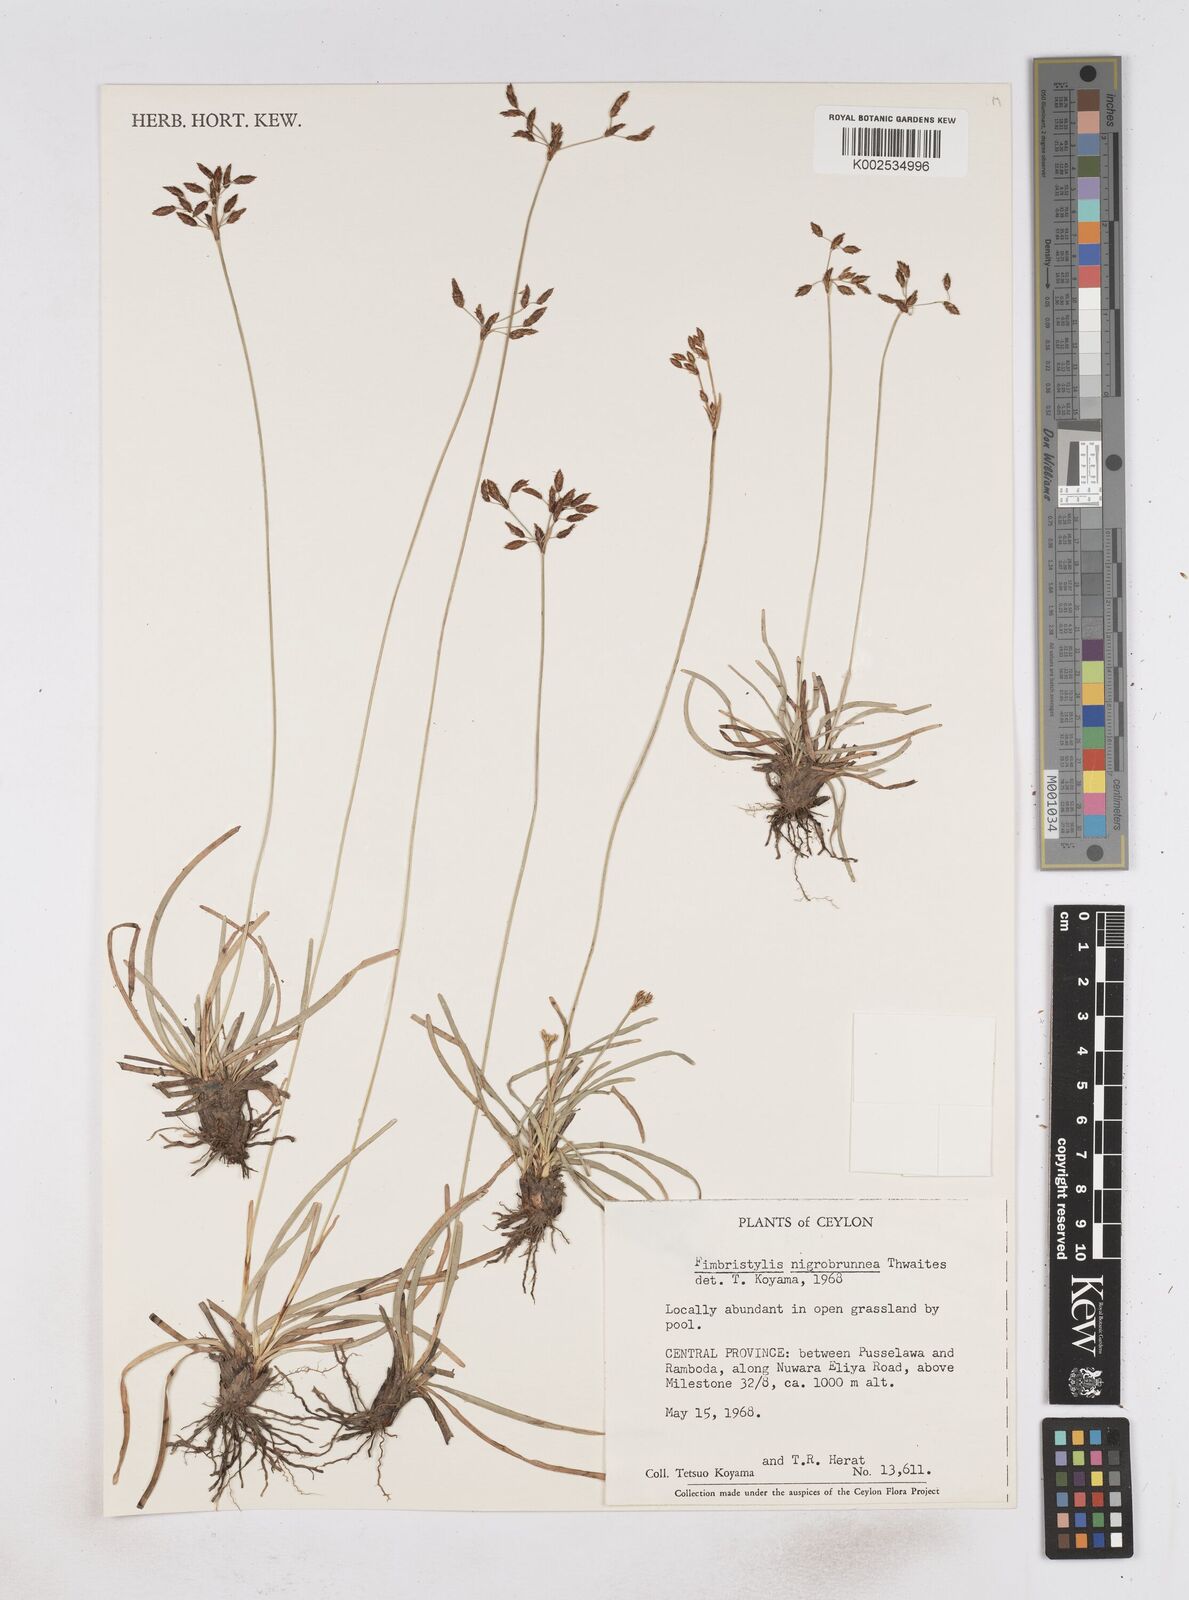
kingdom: Plantae
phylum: Tracheophyta
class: Liliopsida
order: Poales
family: Cyperaceae
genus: Fimbristylis
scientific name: Fimbristylis nigrobrunnea
